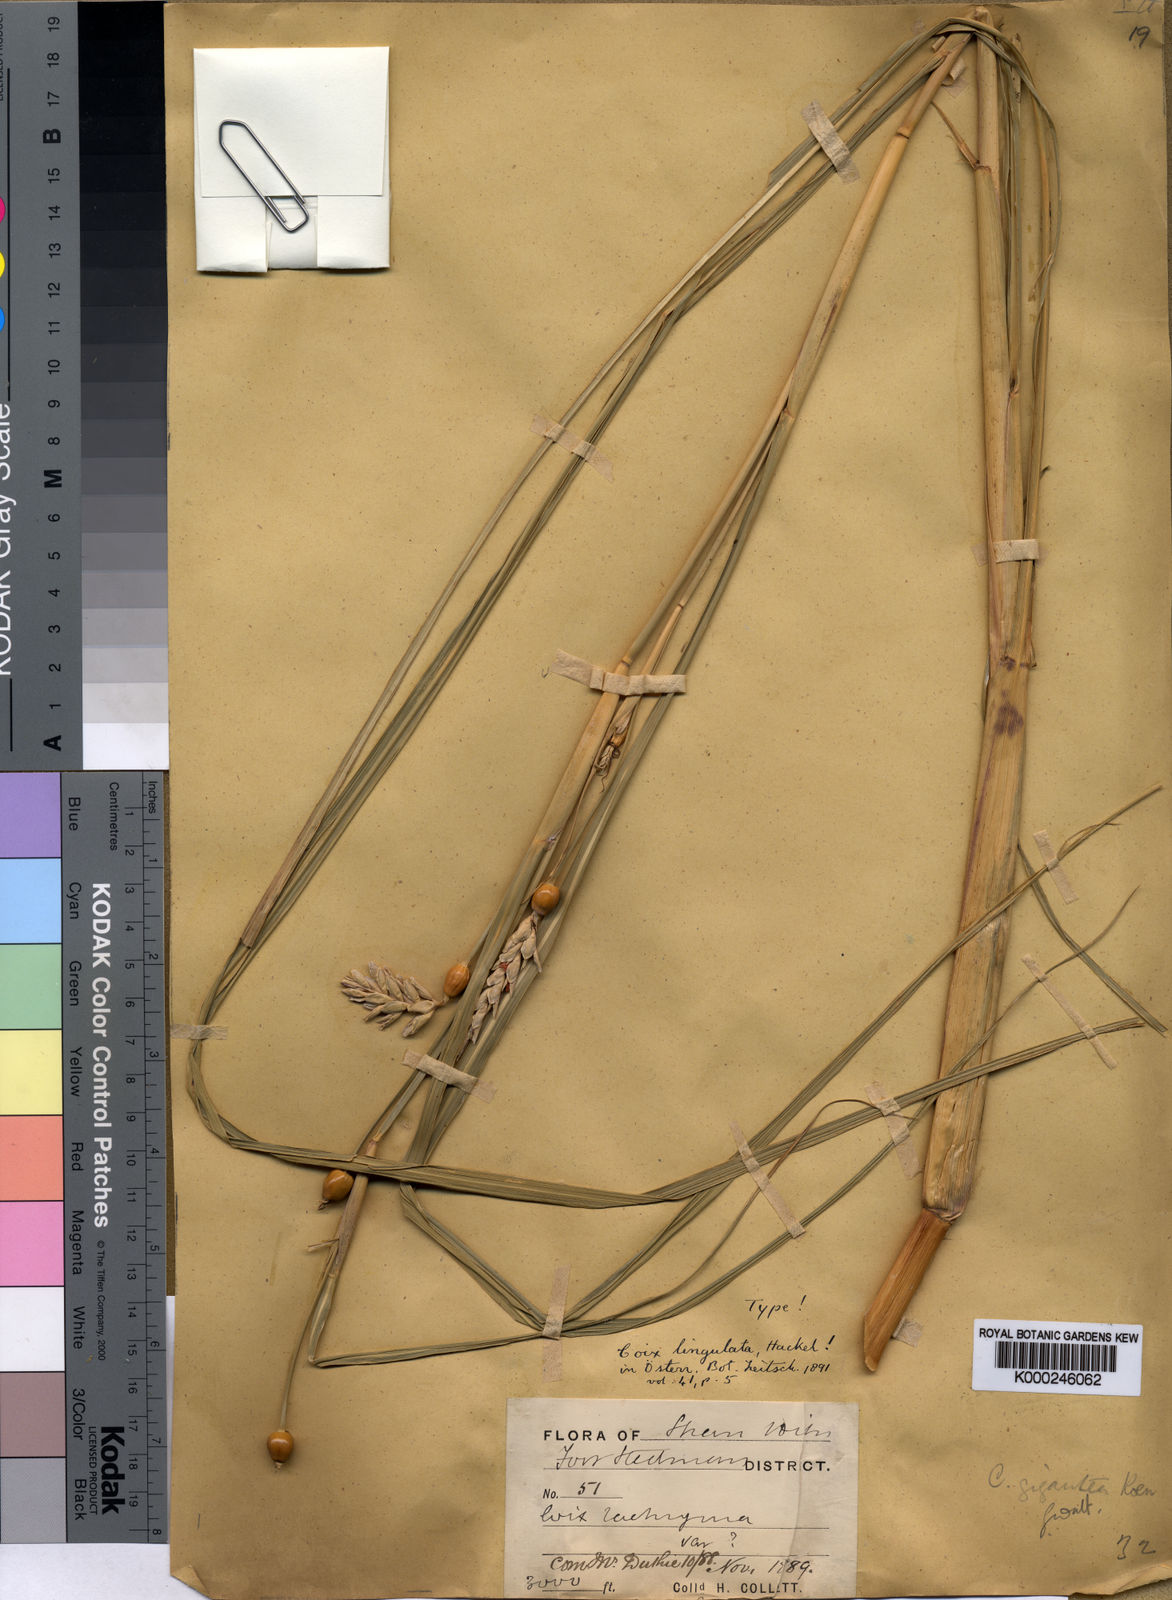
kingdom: Plantae
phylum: Tracheophyta
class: Liliopsida
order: Poales
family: Poaceae
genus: Coix
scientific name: Coix aquatica
